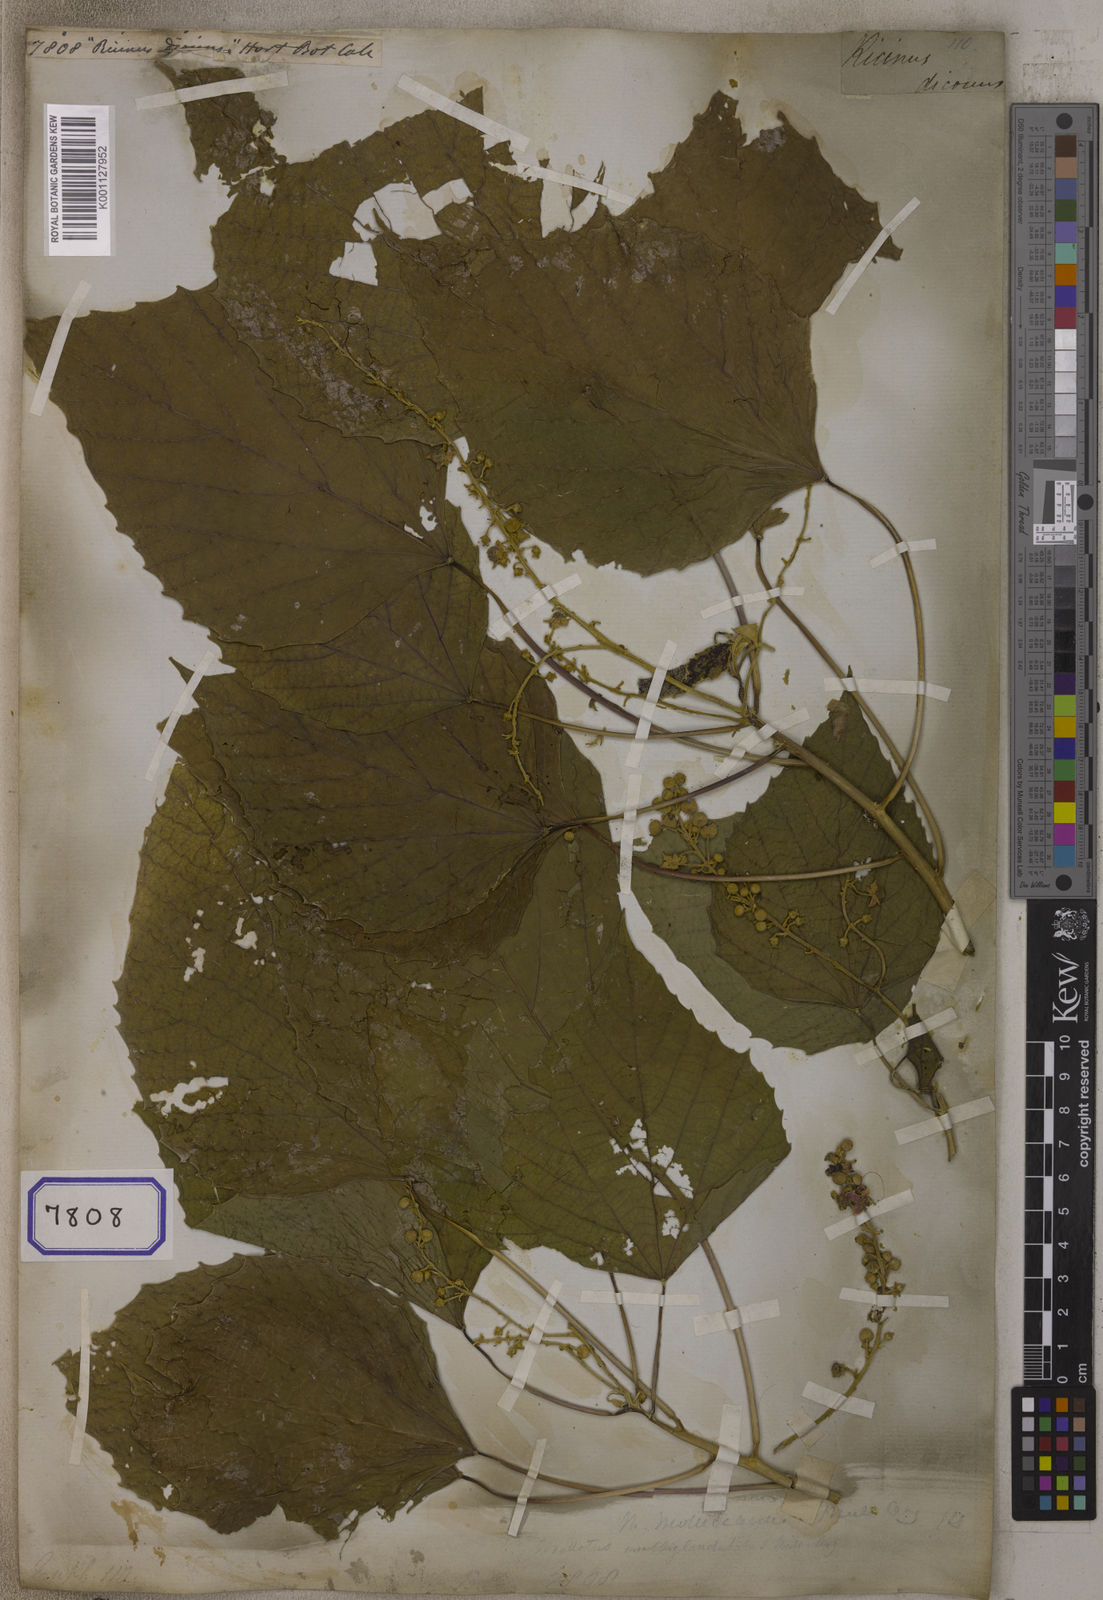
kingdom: Plantae
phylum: Tracheophyta
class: Magnoliopsida
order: Malpighiales
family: Euphorbiaceae
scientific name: Euphorbiaceae
